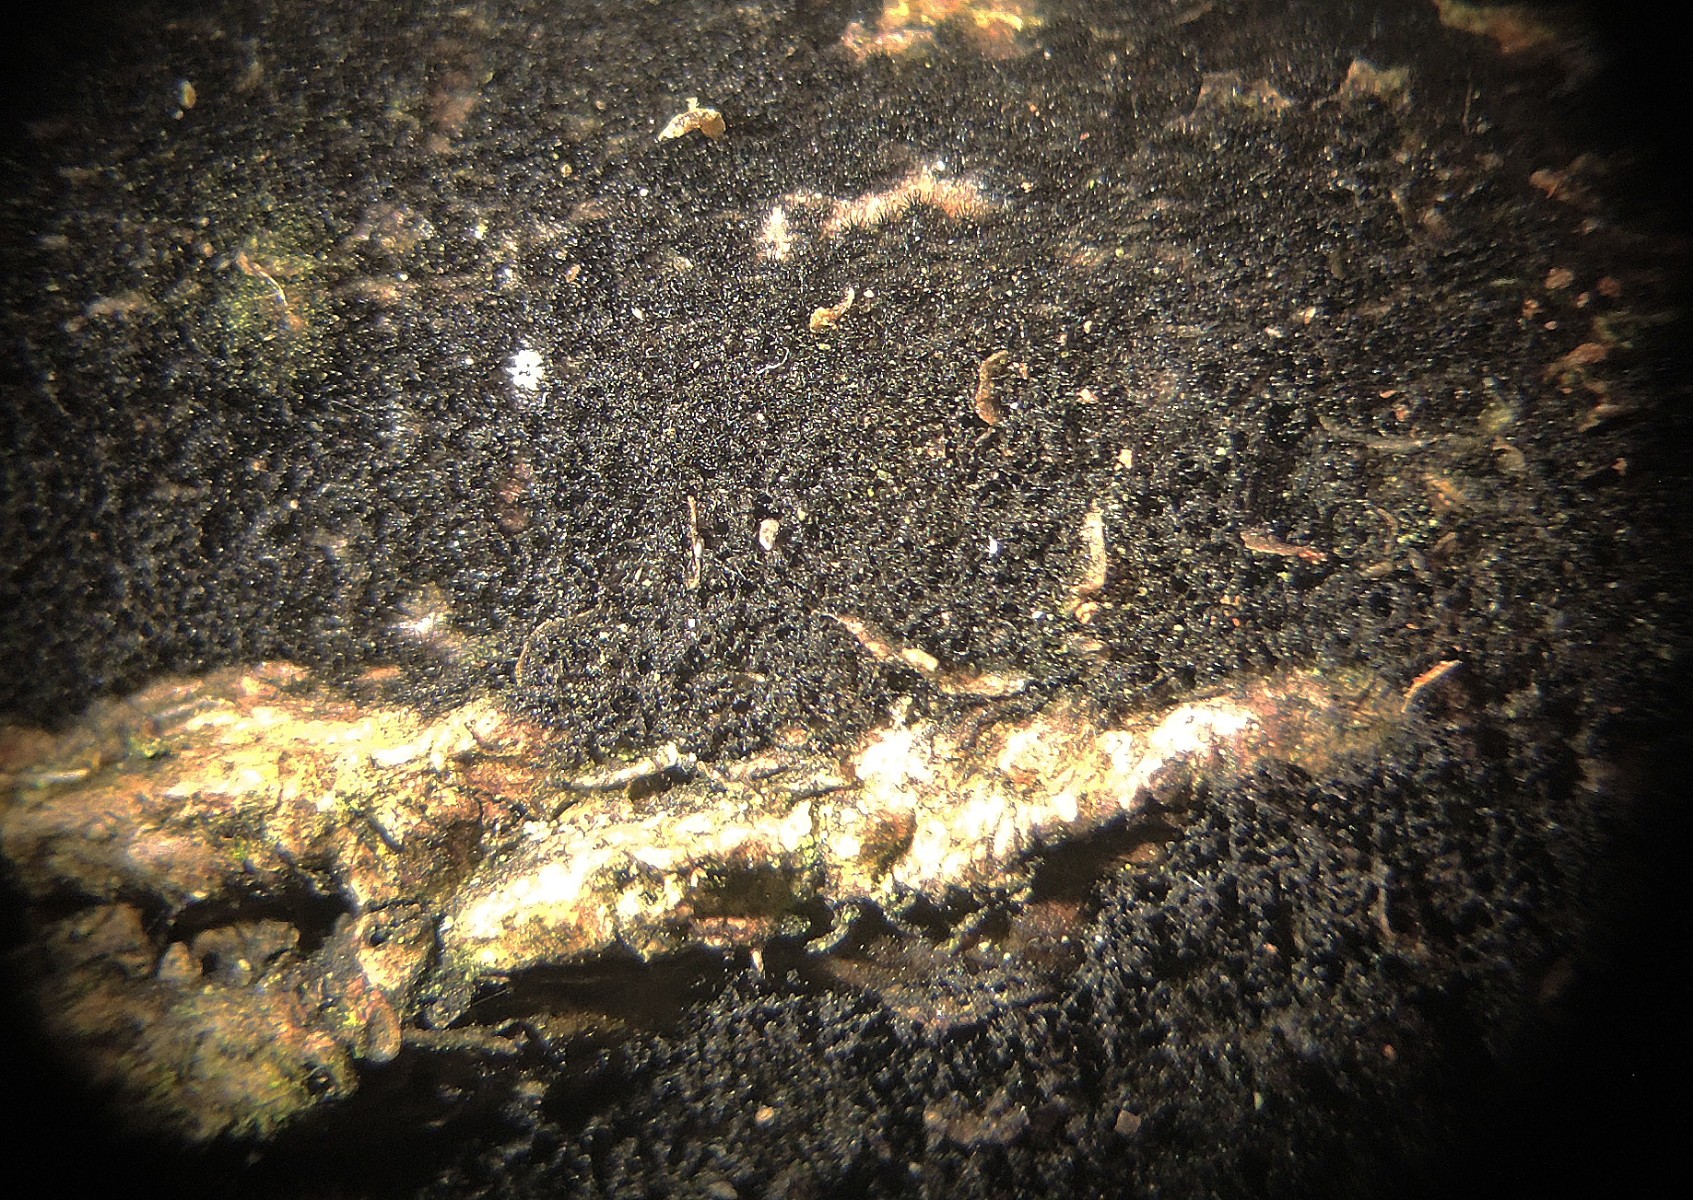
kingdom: Fungi
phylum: Ascomycota
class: Dothideomycetes
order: Pleosporales
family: Massarinaceae
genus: Helminthosporium
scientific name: Helminthosporium quercicola
